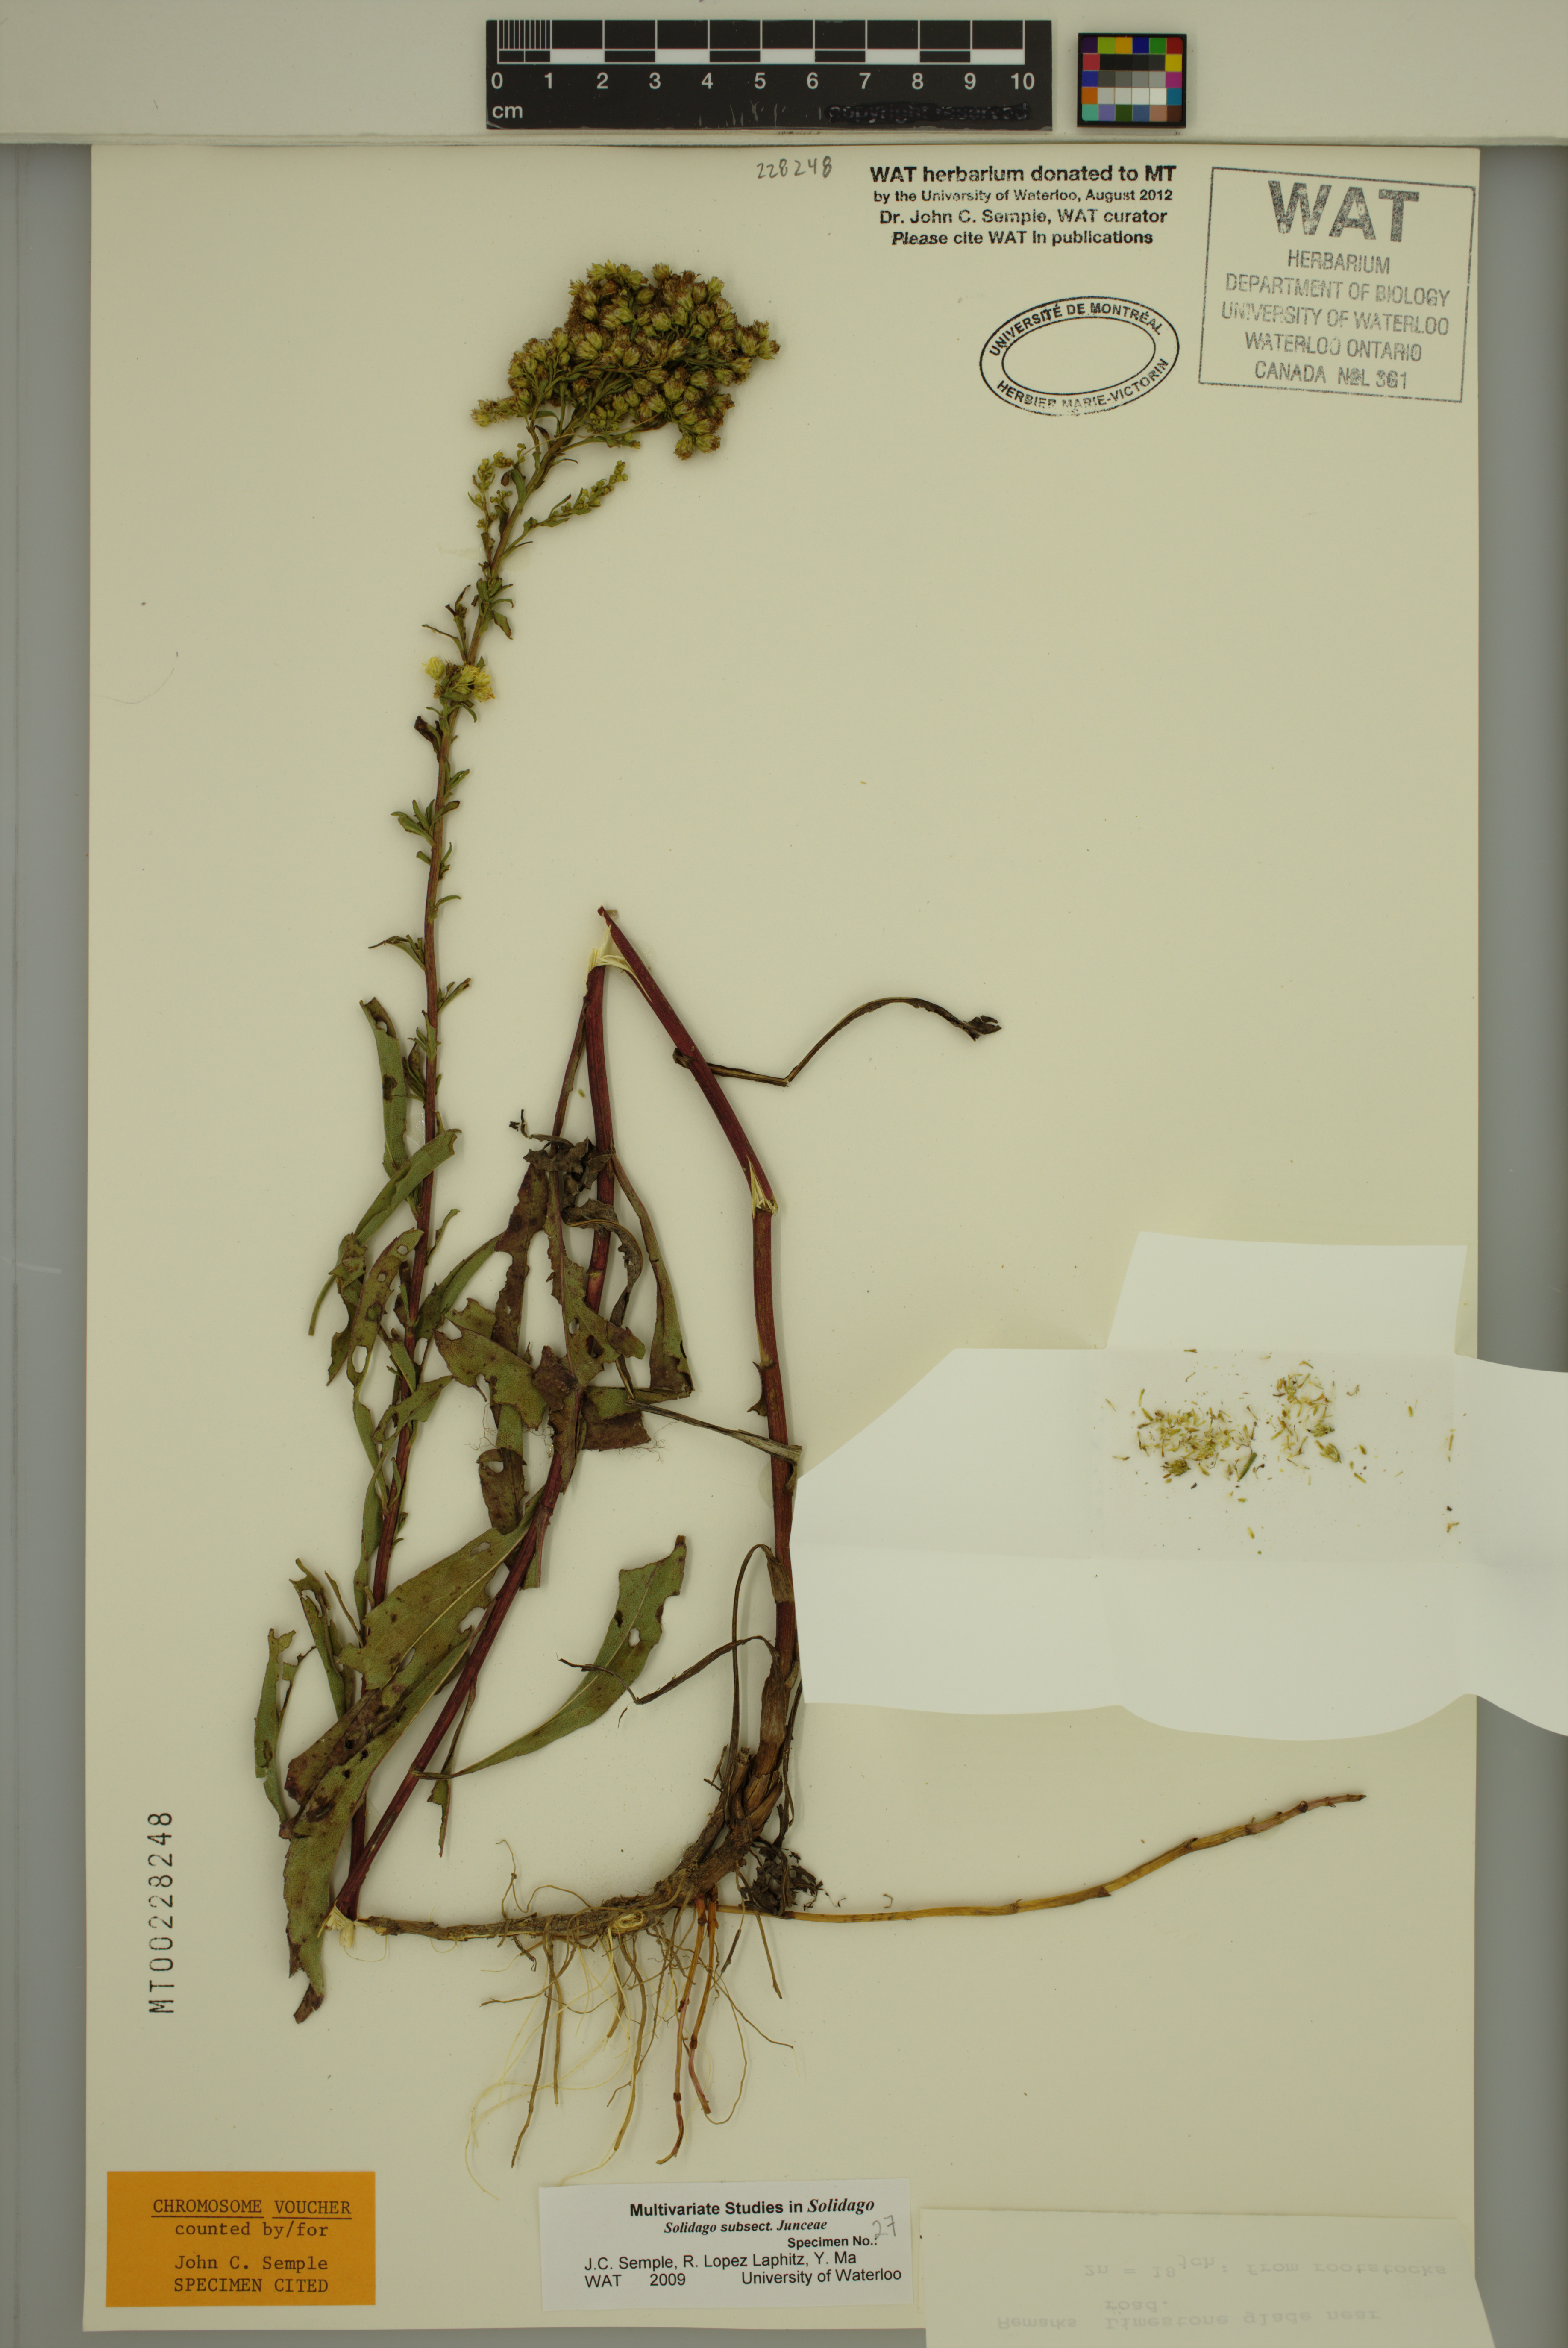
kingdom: Plantae
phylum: Tracheophyta
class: Magnoliopsida
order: Asterales
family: Asteraceae
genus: Solidago
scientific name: Solidago missouriensis
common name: Prairie goldenrod
